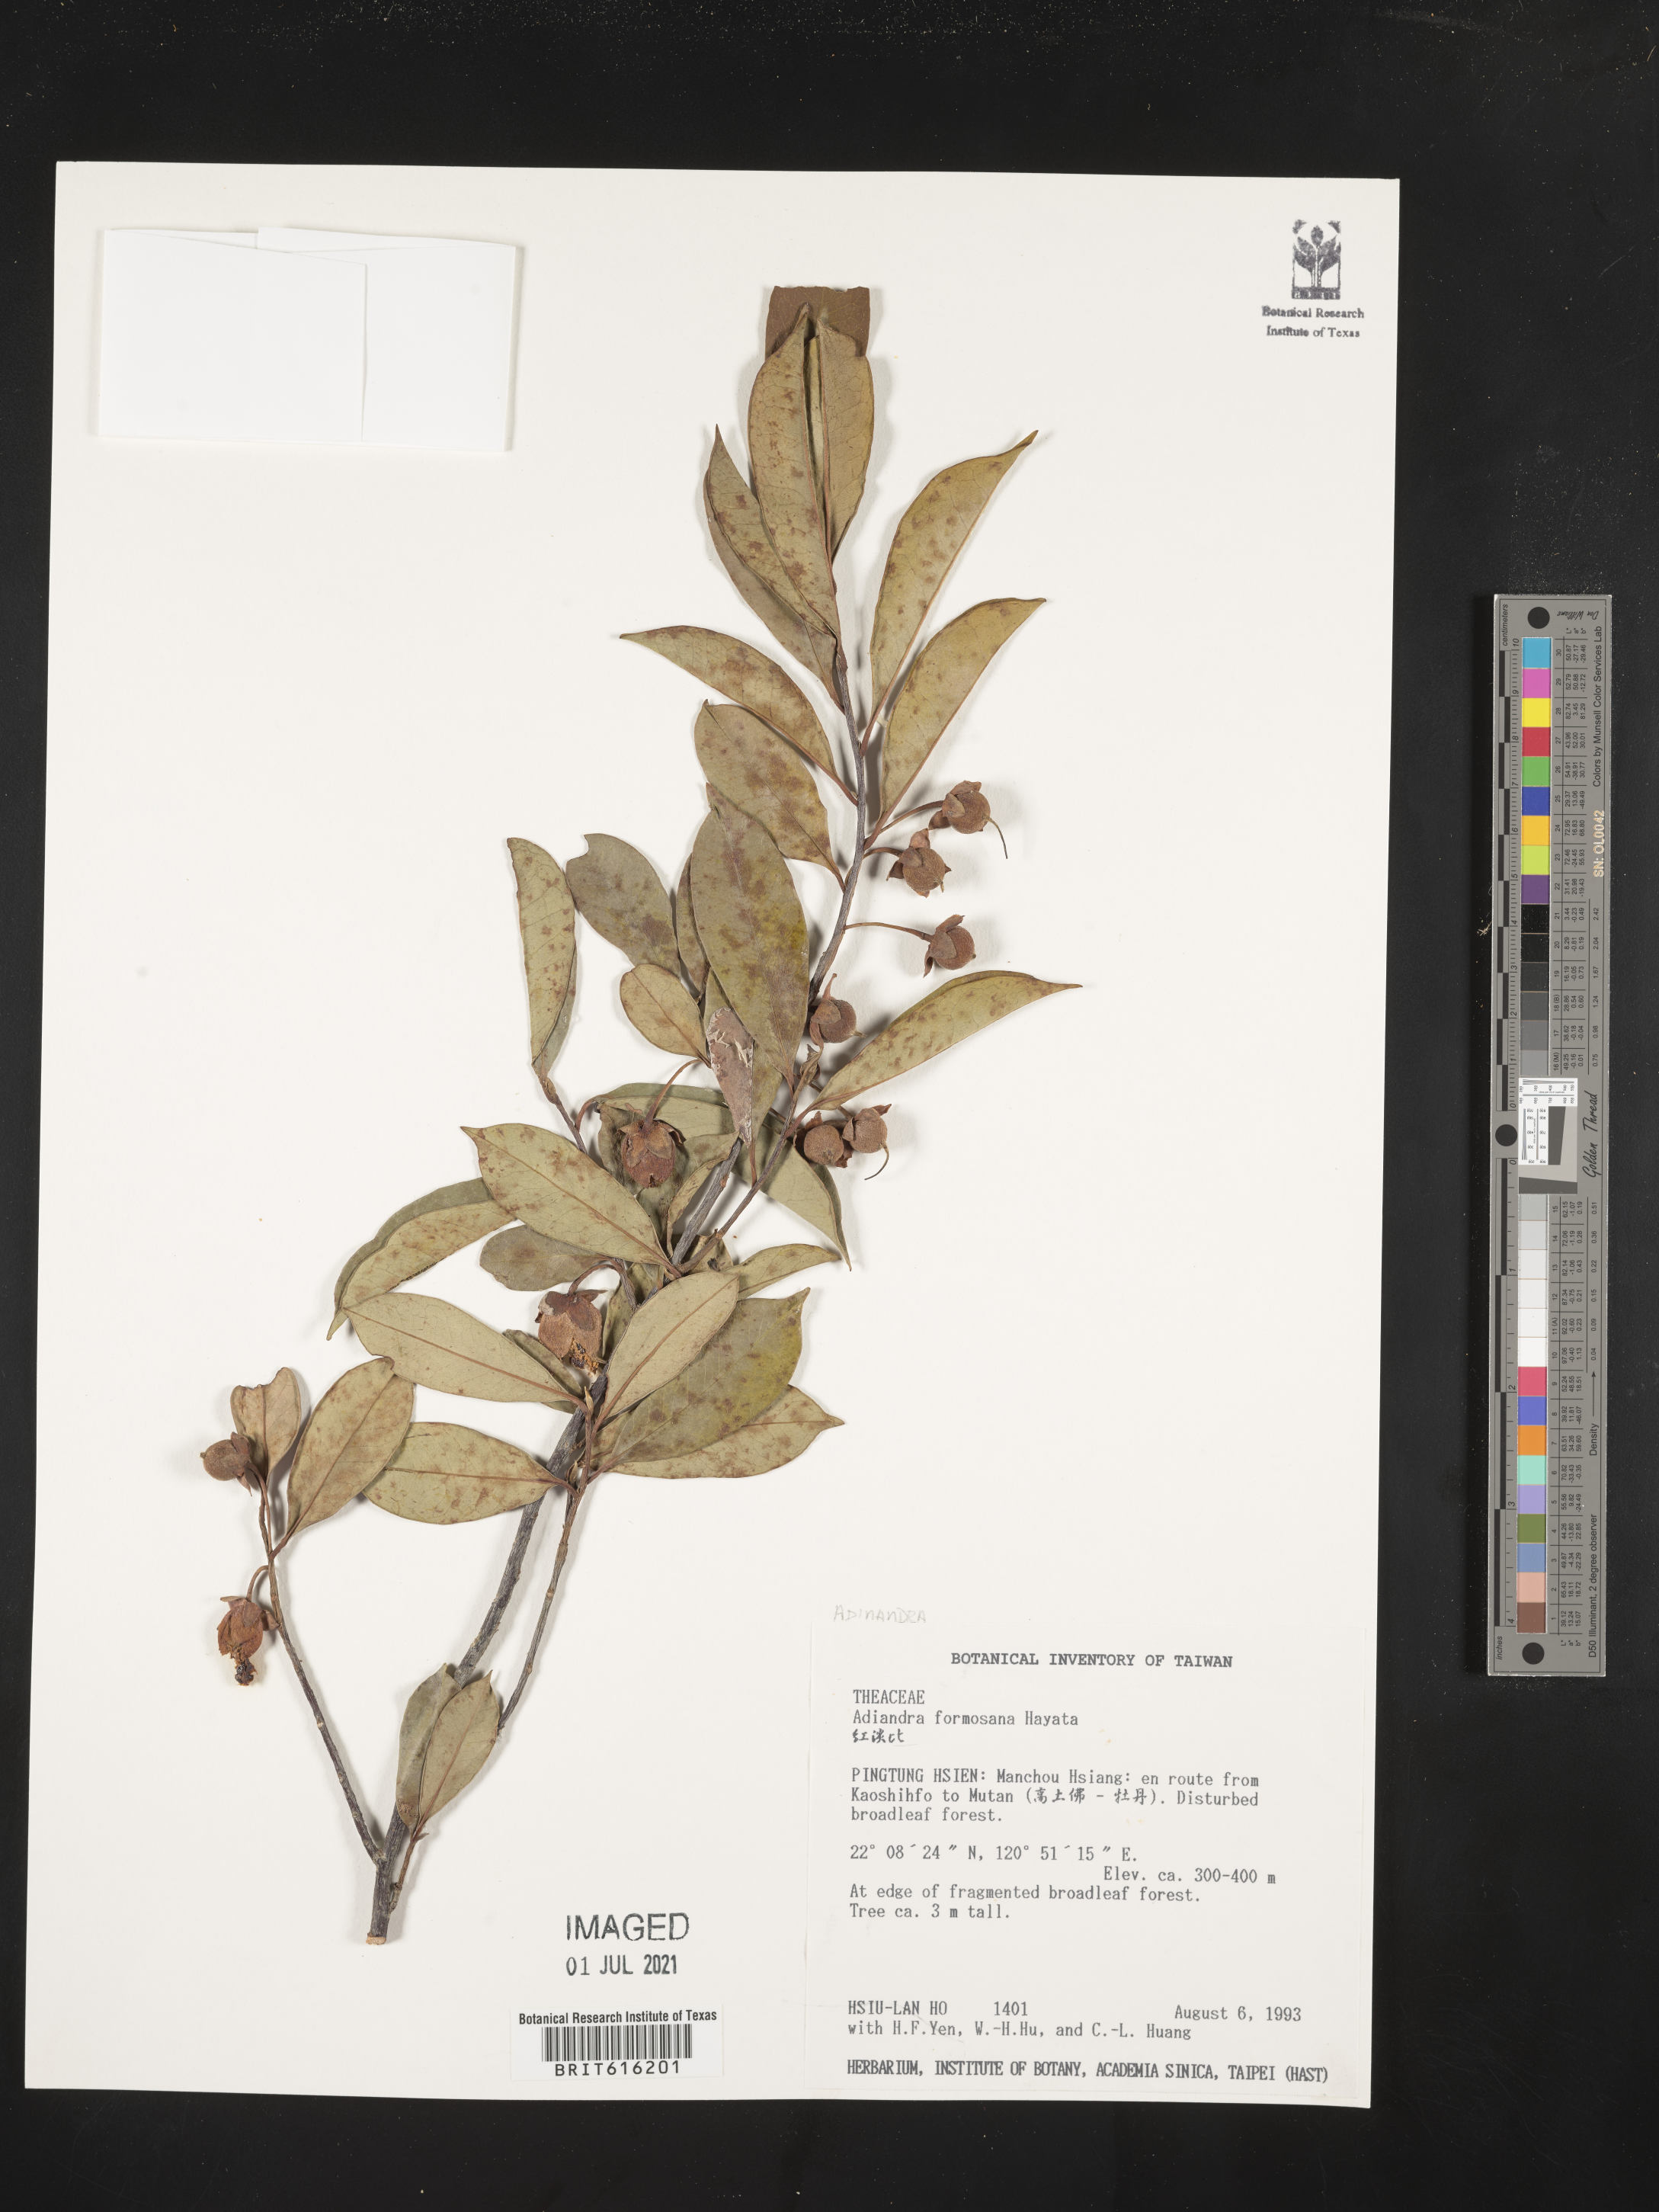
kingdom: Plantae
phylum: Tracheophyta
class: Magnoliopsida
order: Ericales
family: Pentaphylacaceae
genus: Adinandra
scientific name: Adinandra formosana
